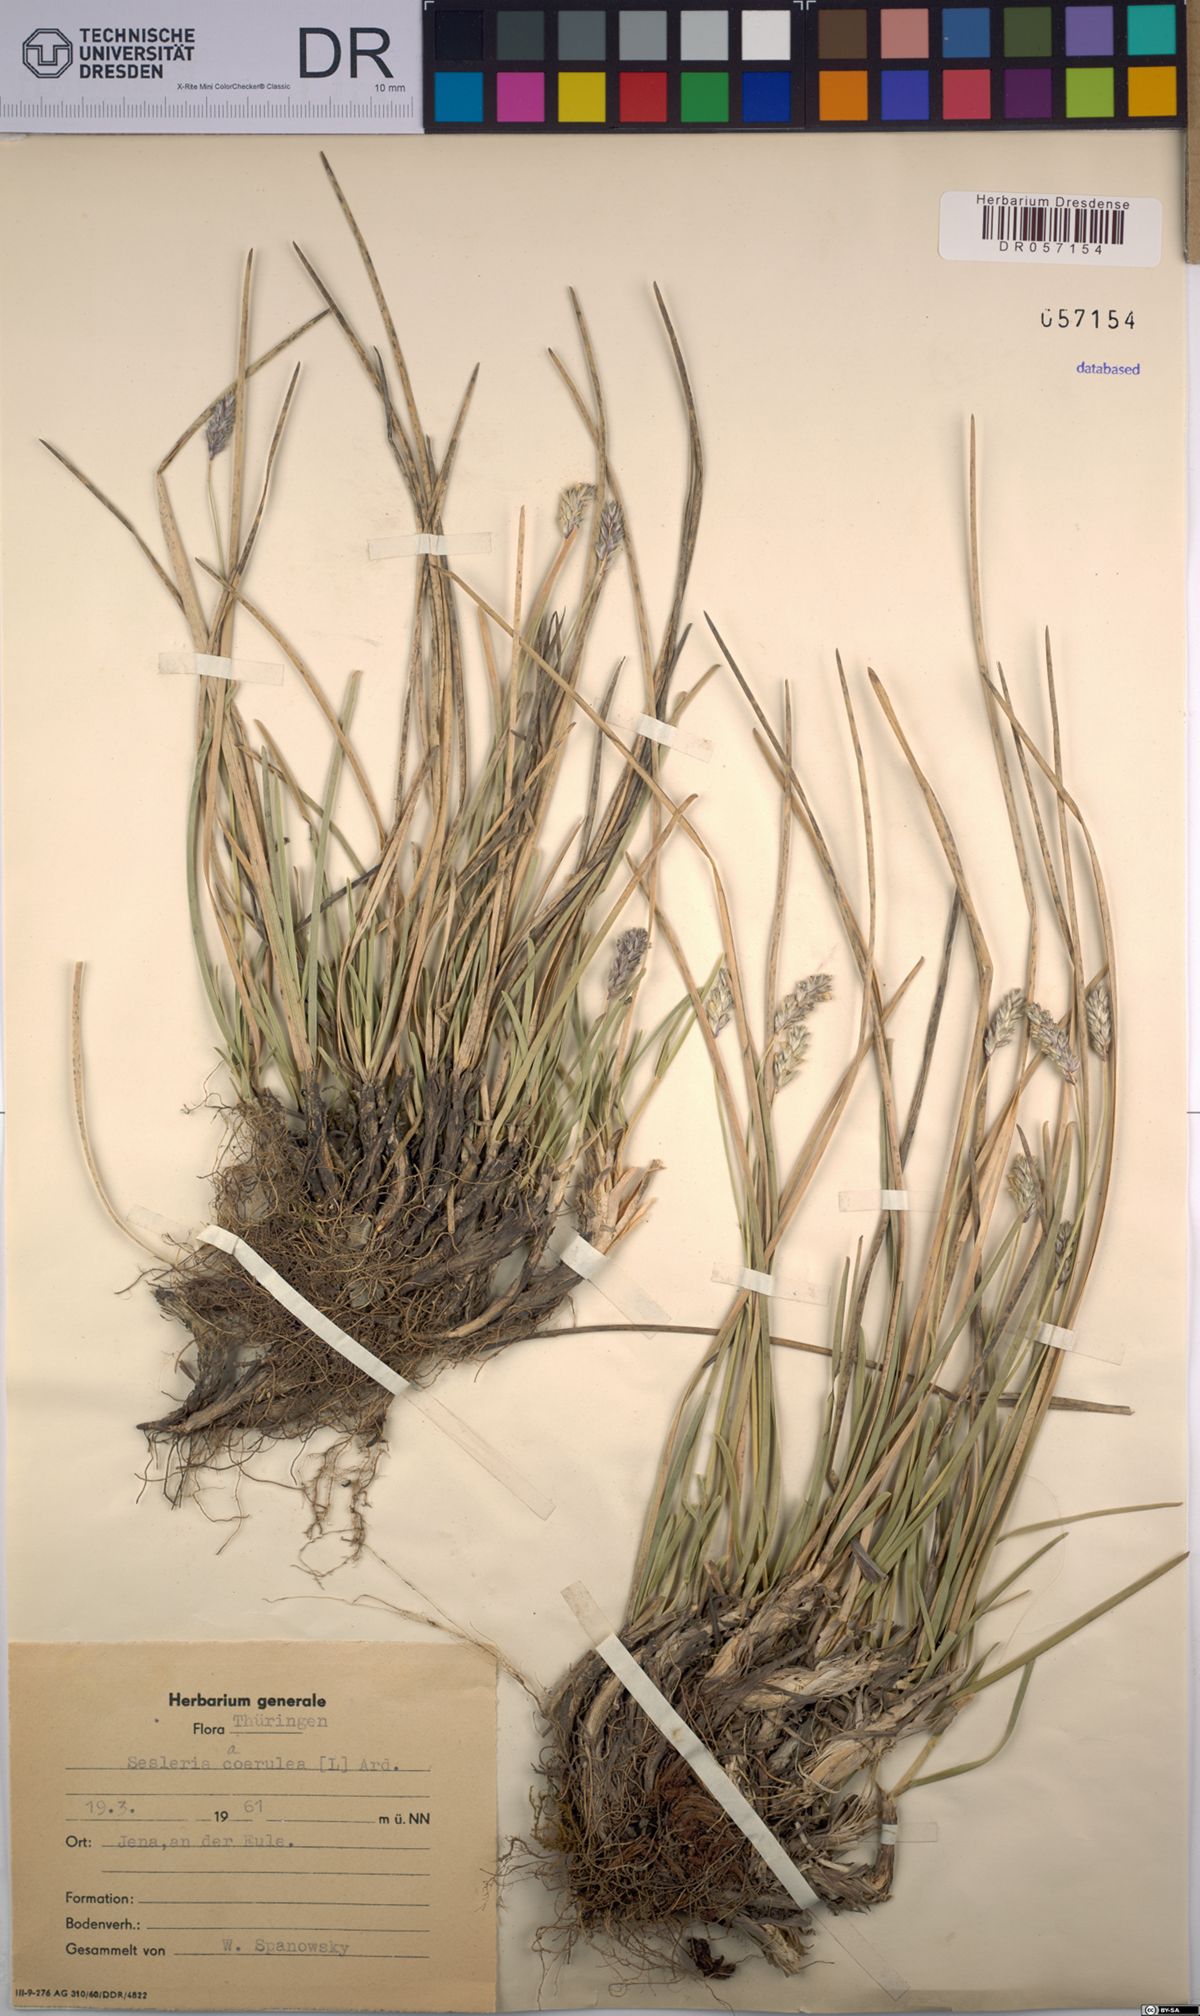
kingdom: Plantae
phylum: Tracheophyta
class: Liliopsida
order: Poales
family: Poaceae
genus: Sesleria
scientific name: Sesleria caerulea
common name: Blue moor-grass
